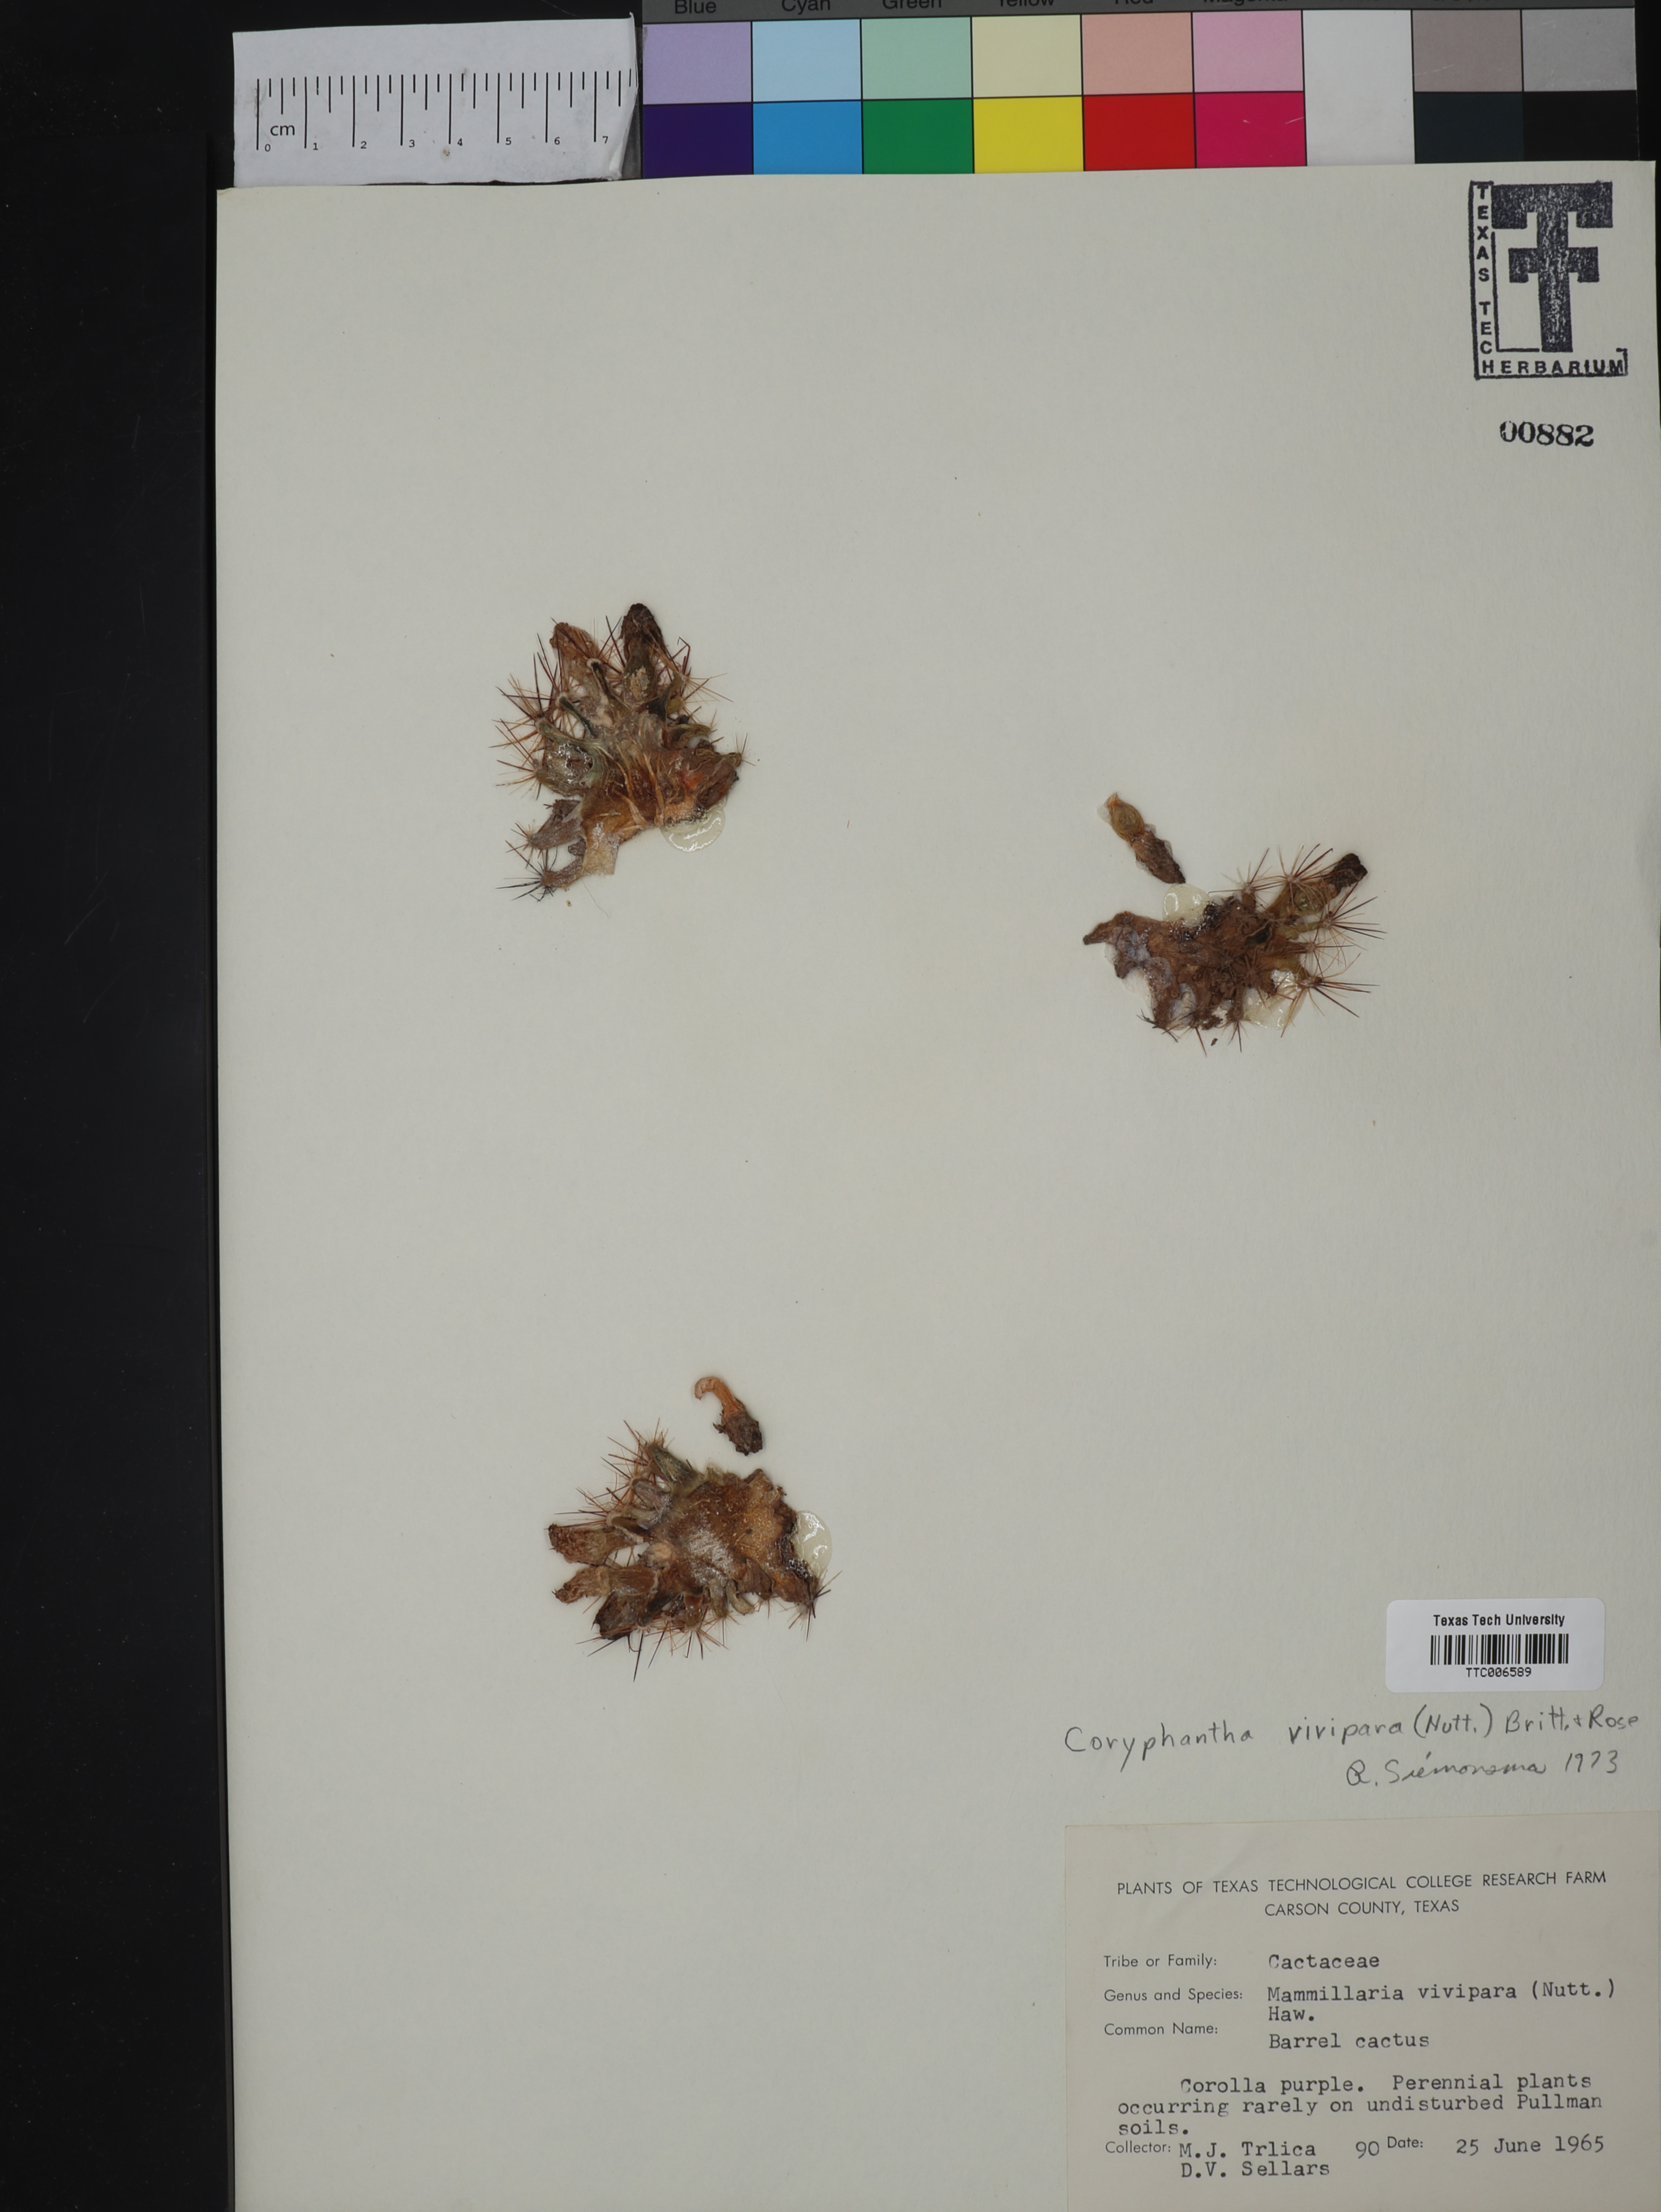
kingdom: Plantae
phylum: Tracheophyta
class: Magnoliopsida
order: Caryophyllales
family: Cactaceae
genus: Pelecyphora
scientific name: Pelecyphora vivipara
